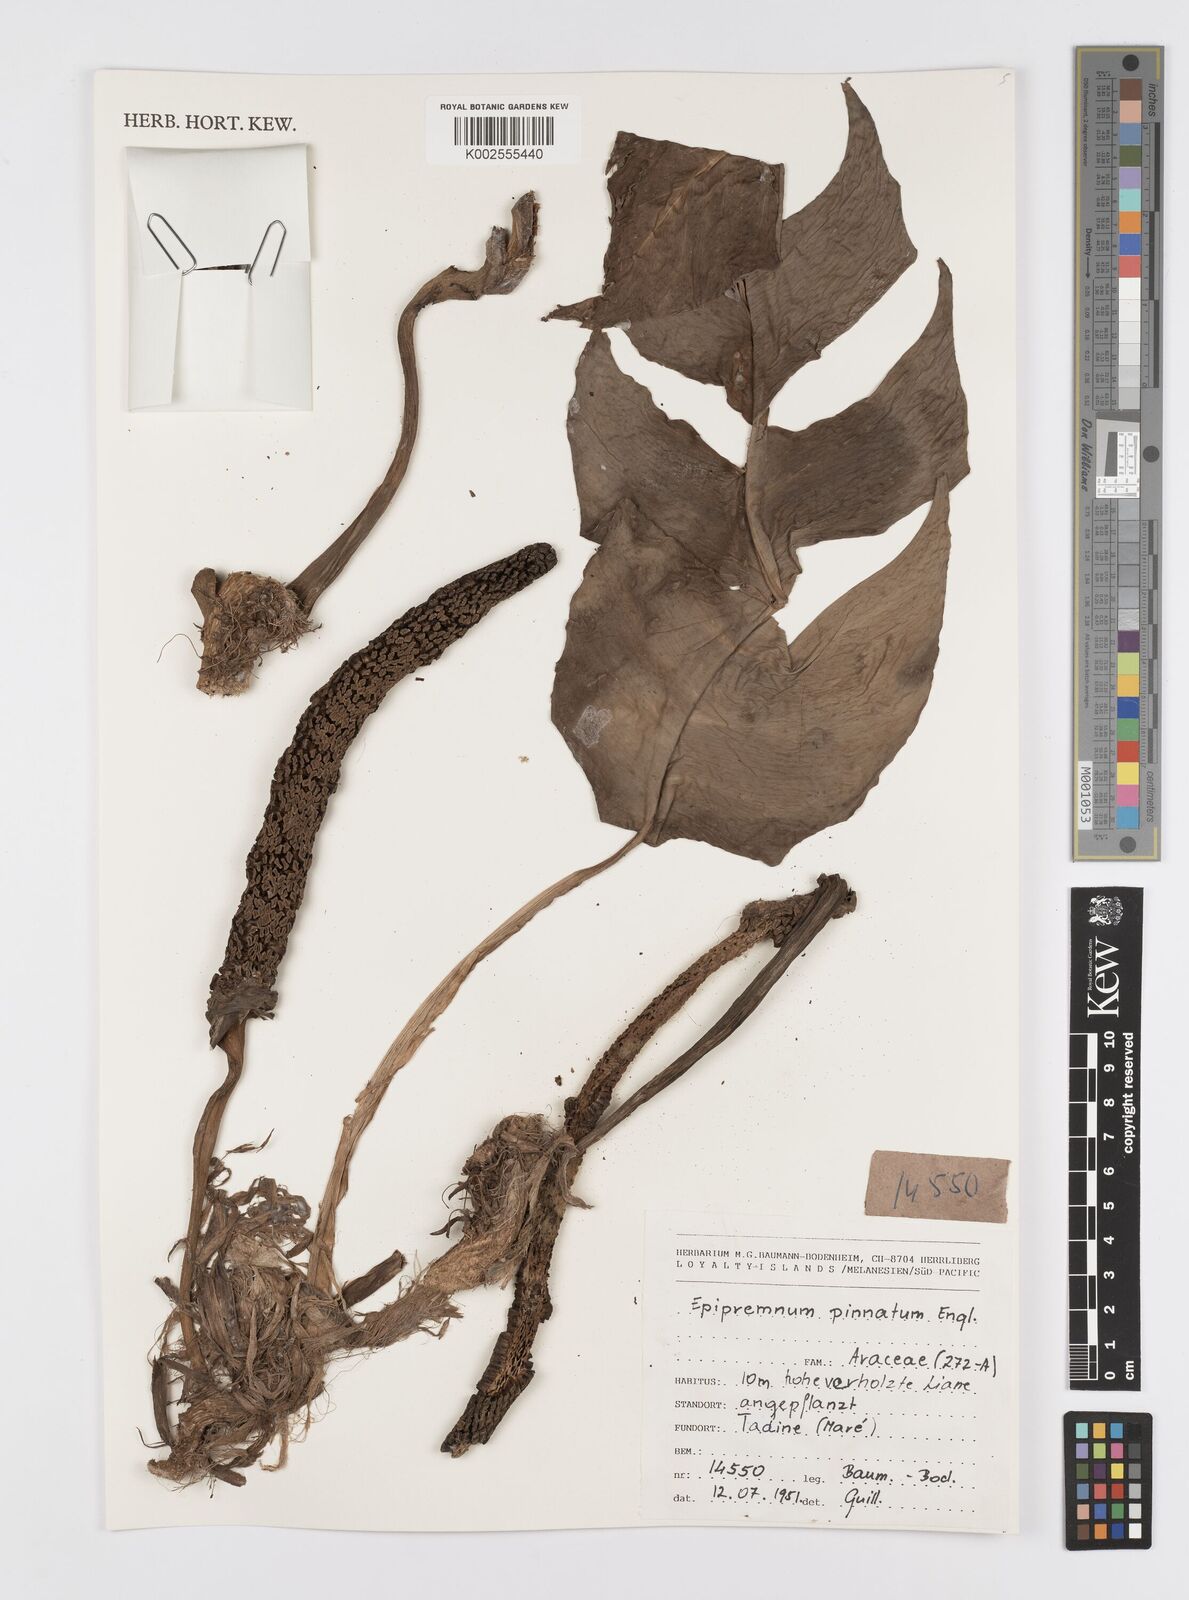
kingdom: Plantae
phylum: Tracheophyta
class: Liliopsida
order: Alismatales
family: Araceae
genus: Epipremnum
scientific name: Epipremnum pinnatum
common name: Centipede tongavine
